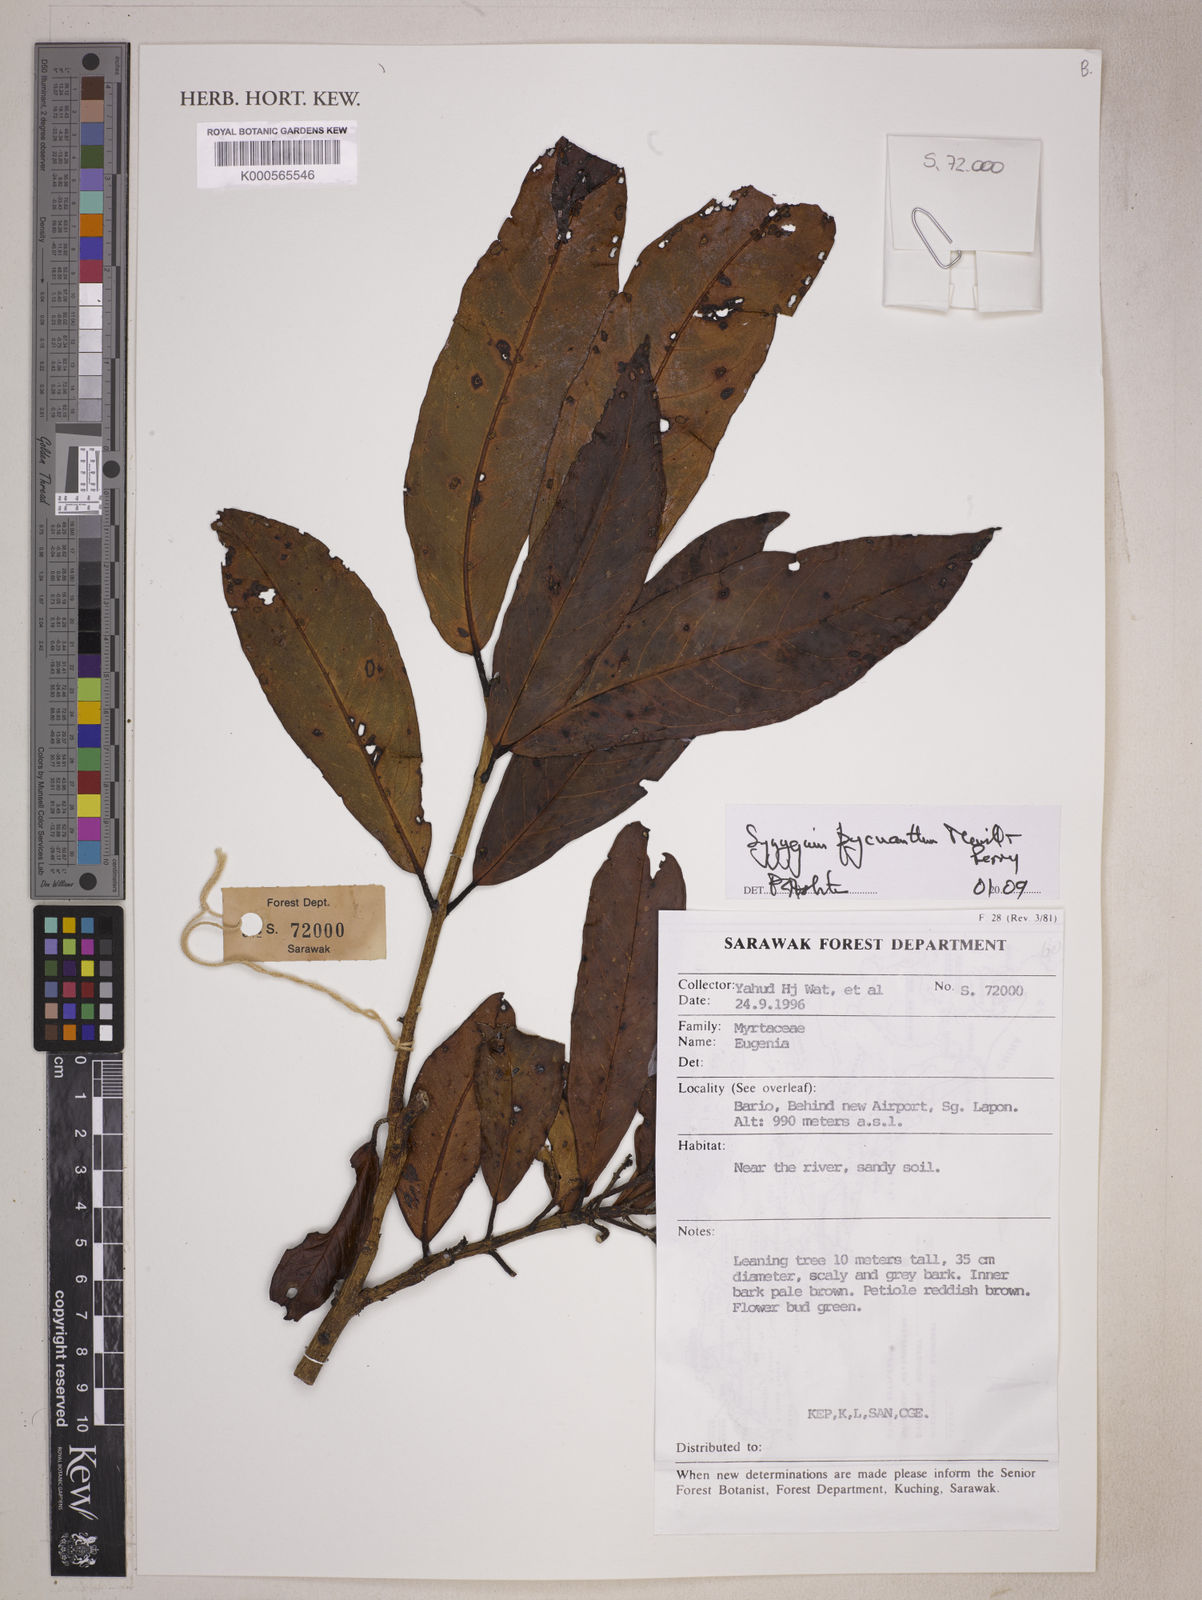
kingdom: Plantae
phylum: Tracheophyta
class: Magnoliopsida
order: Myrtales
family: Myrtaceae
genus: Syzygium
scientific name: Syzygium pycnanthum
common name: Wild rose
